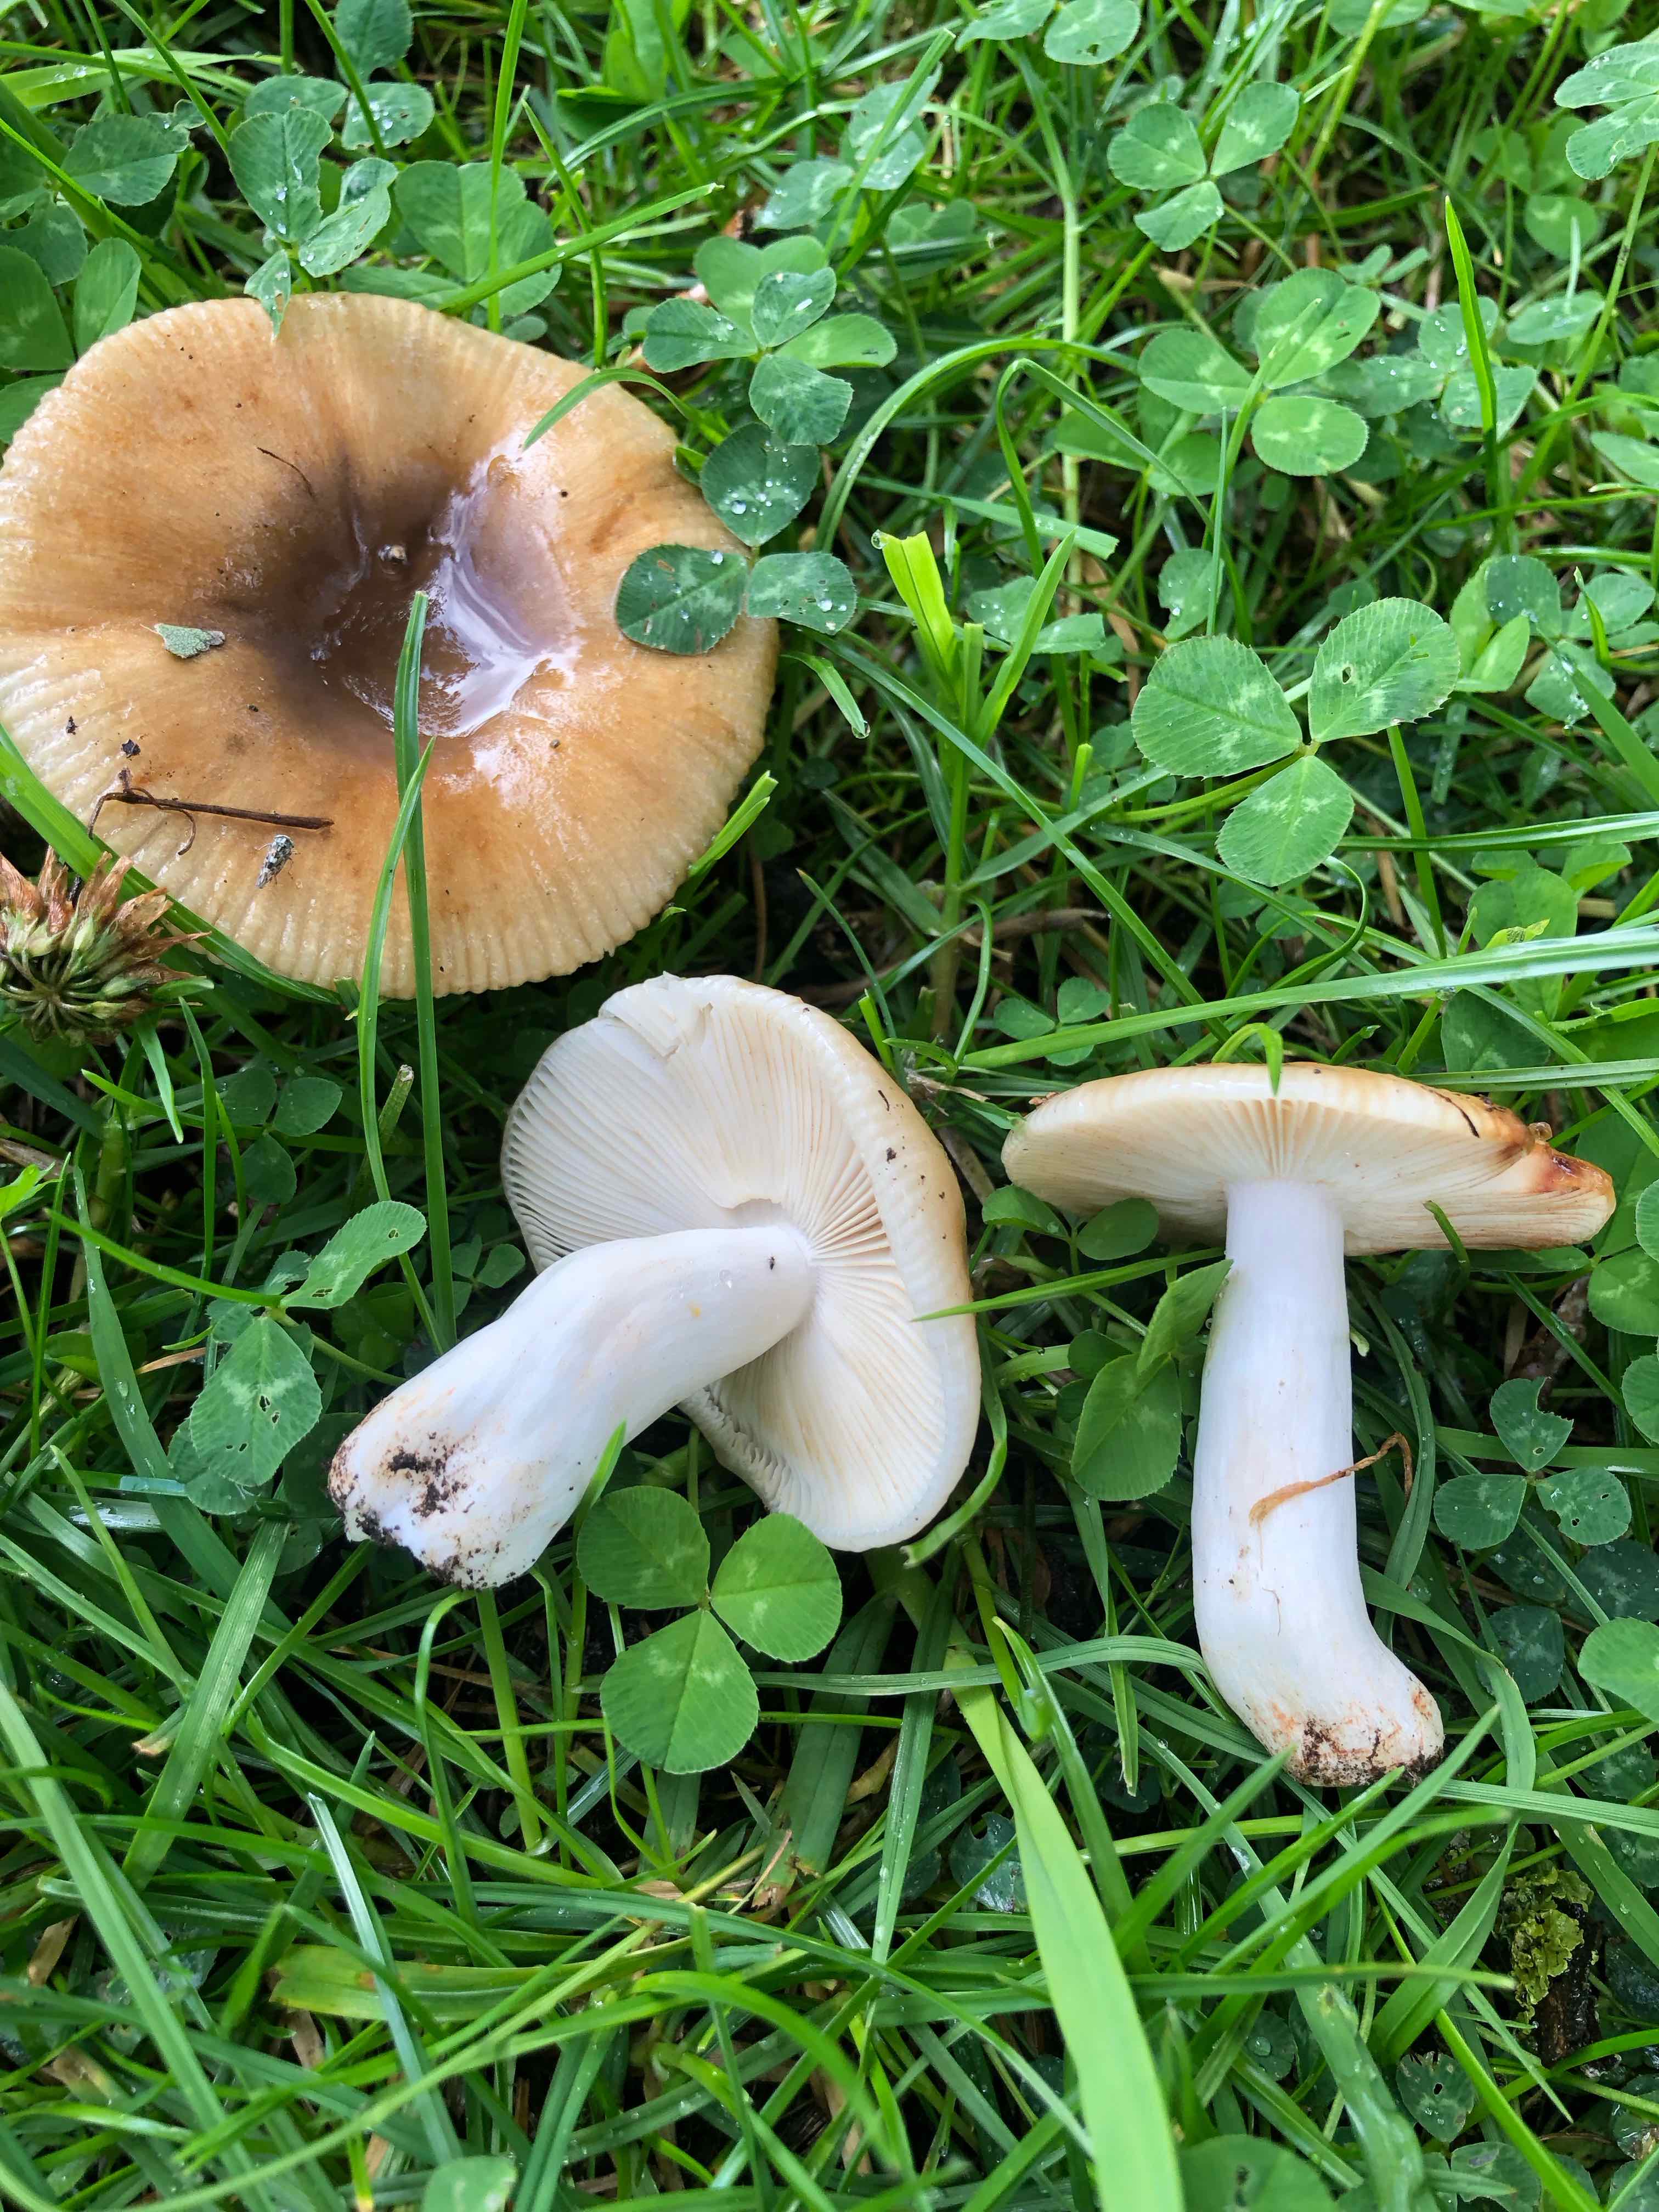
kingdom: Fungi
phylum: Basidiomycota
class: Agaricomycetes
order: Russulales
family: Russulaceae
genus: Russula
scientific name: Russula
